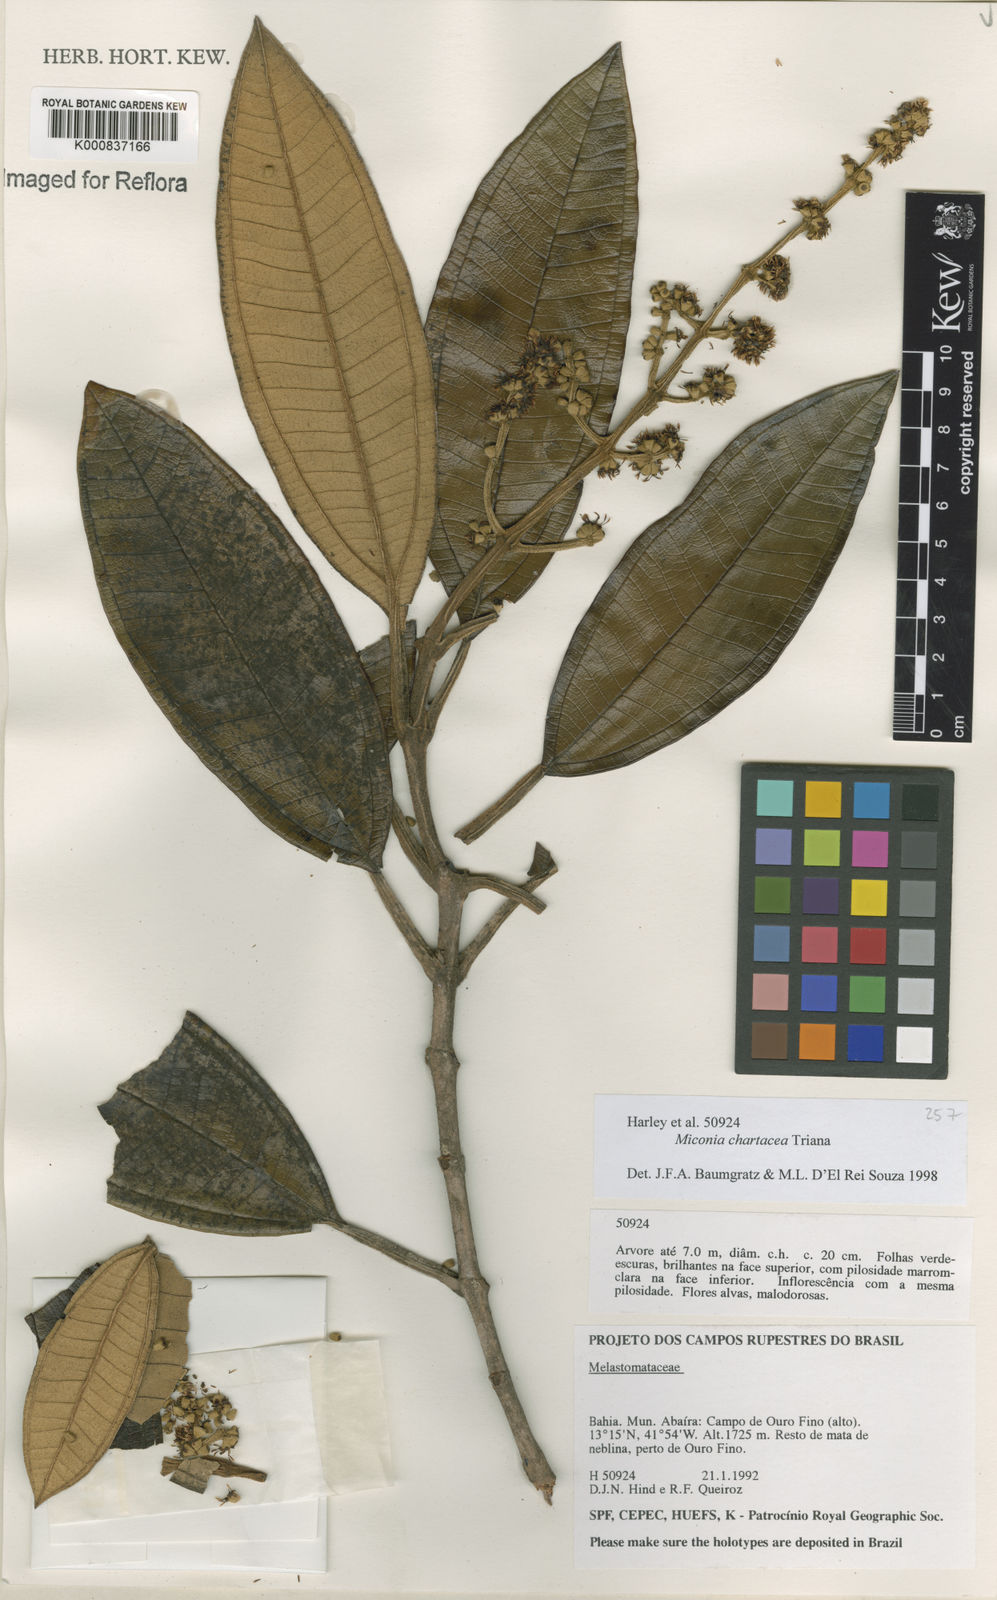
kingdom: Plantae
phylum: Tracheophyta
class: Magnoliopsida
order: Myrtales
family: Melastomataceae
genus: Miconia
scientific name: Miconia chartacea
